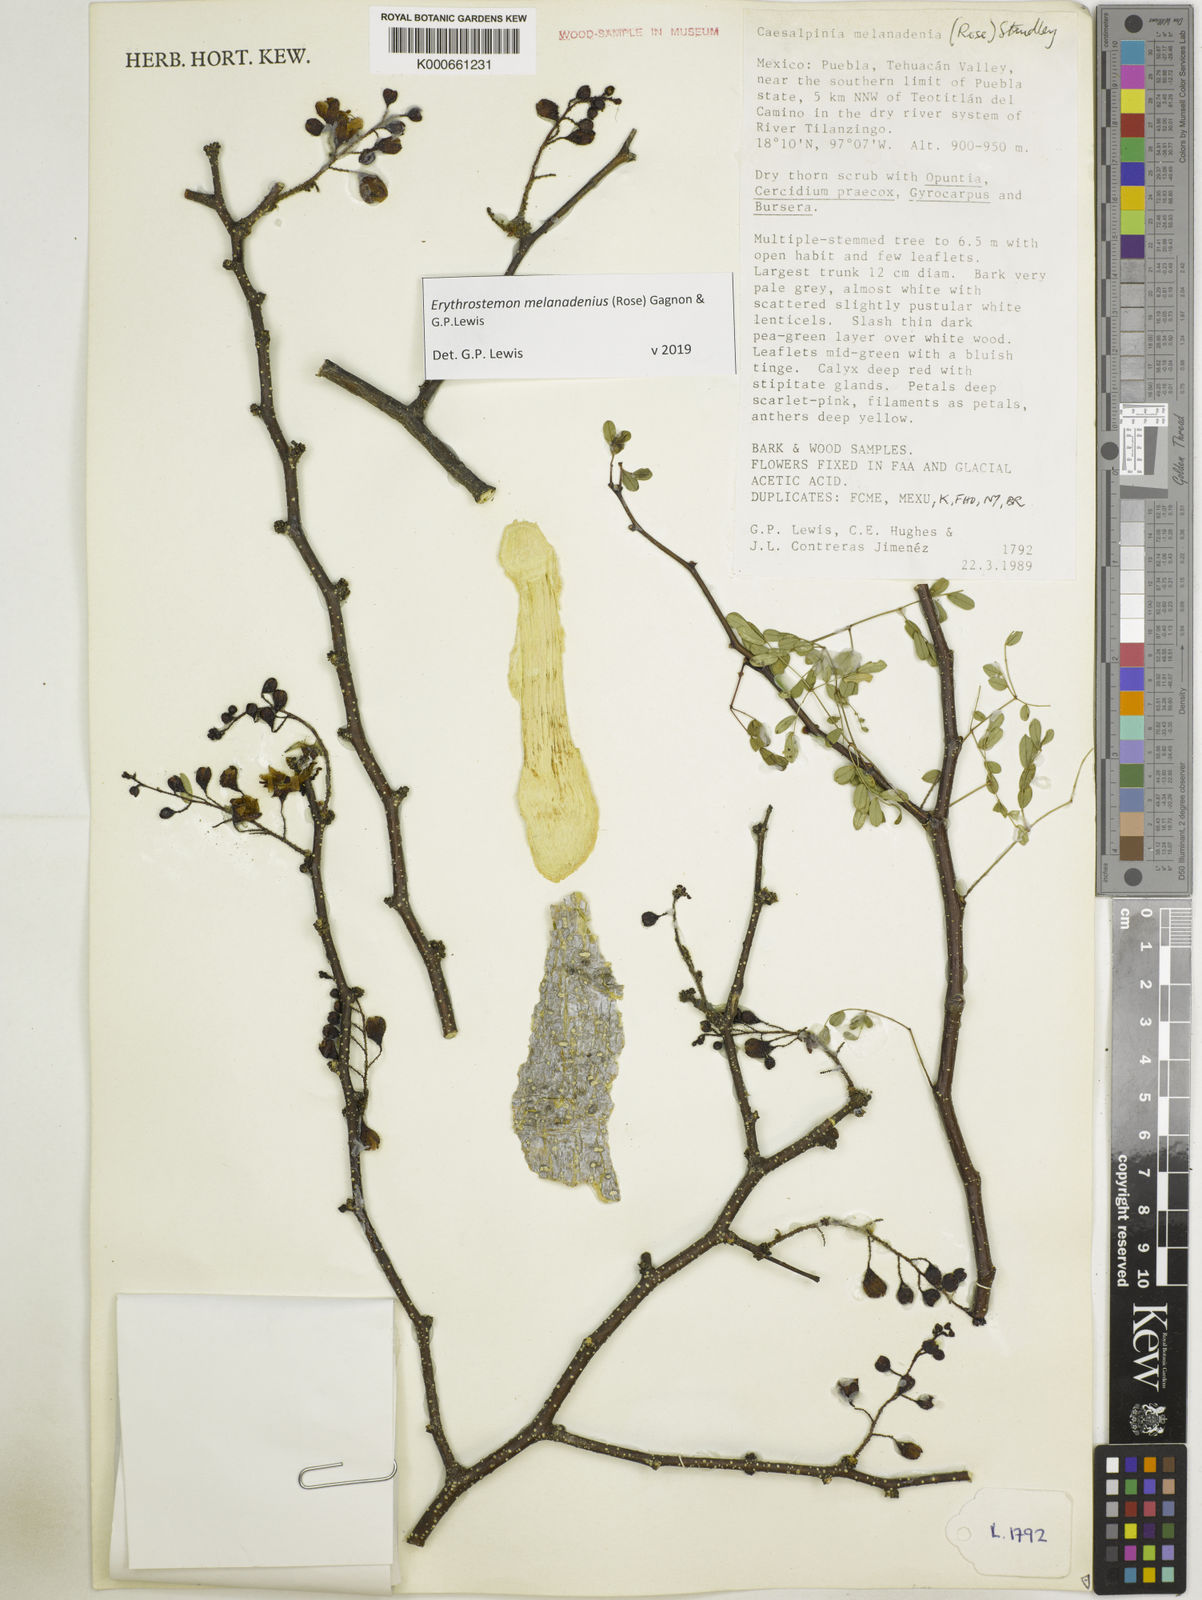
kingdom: Plantae
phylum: Tracheophyta
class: Magnoliopsida
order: Fabales
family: Fabaceae
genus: Erythrostemon
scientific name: Erythrostemon melanadenius
